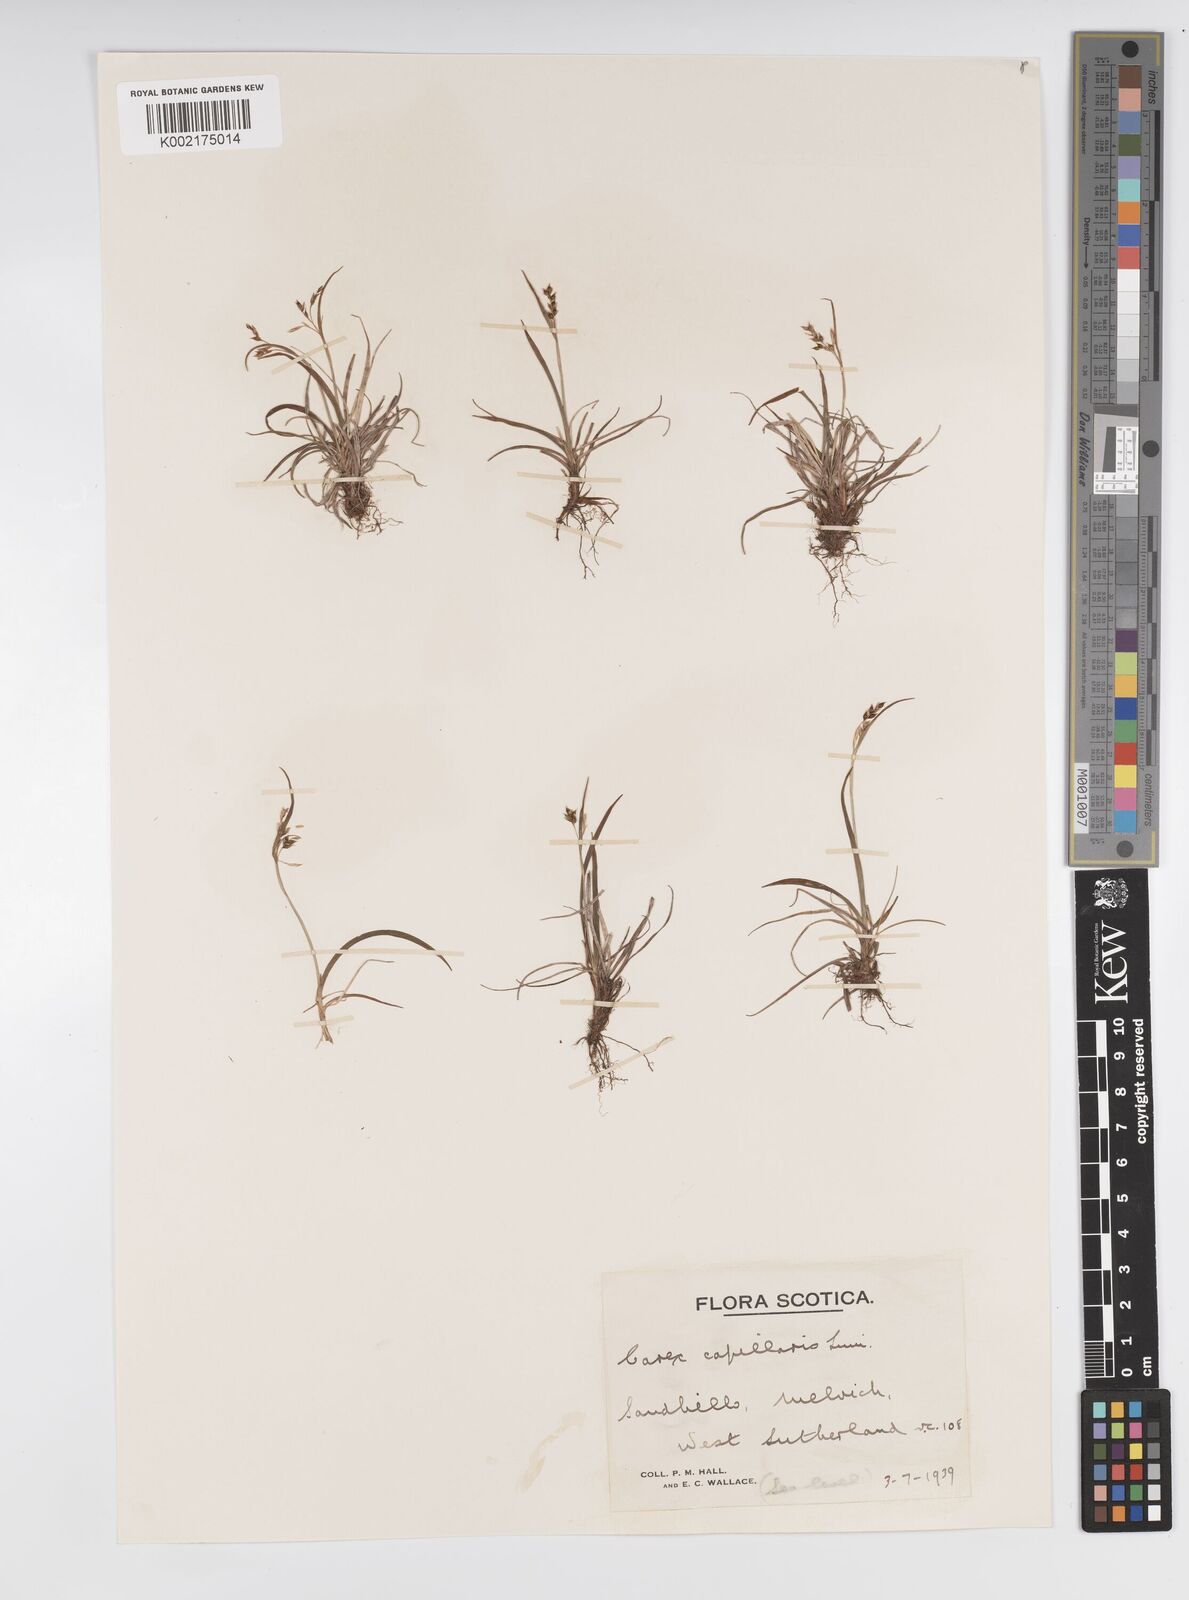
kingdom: Plantae
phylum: Tracheophyta
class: Liliopsida
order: Poales
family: Cyperaceae
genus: Carex
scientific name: Carex capillaris
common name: Hair sedge
